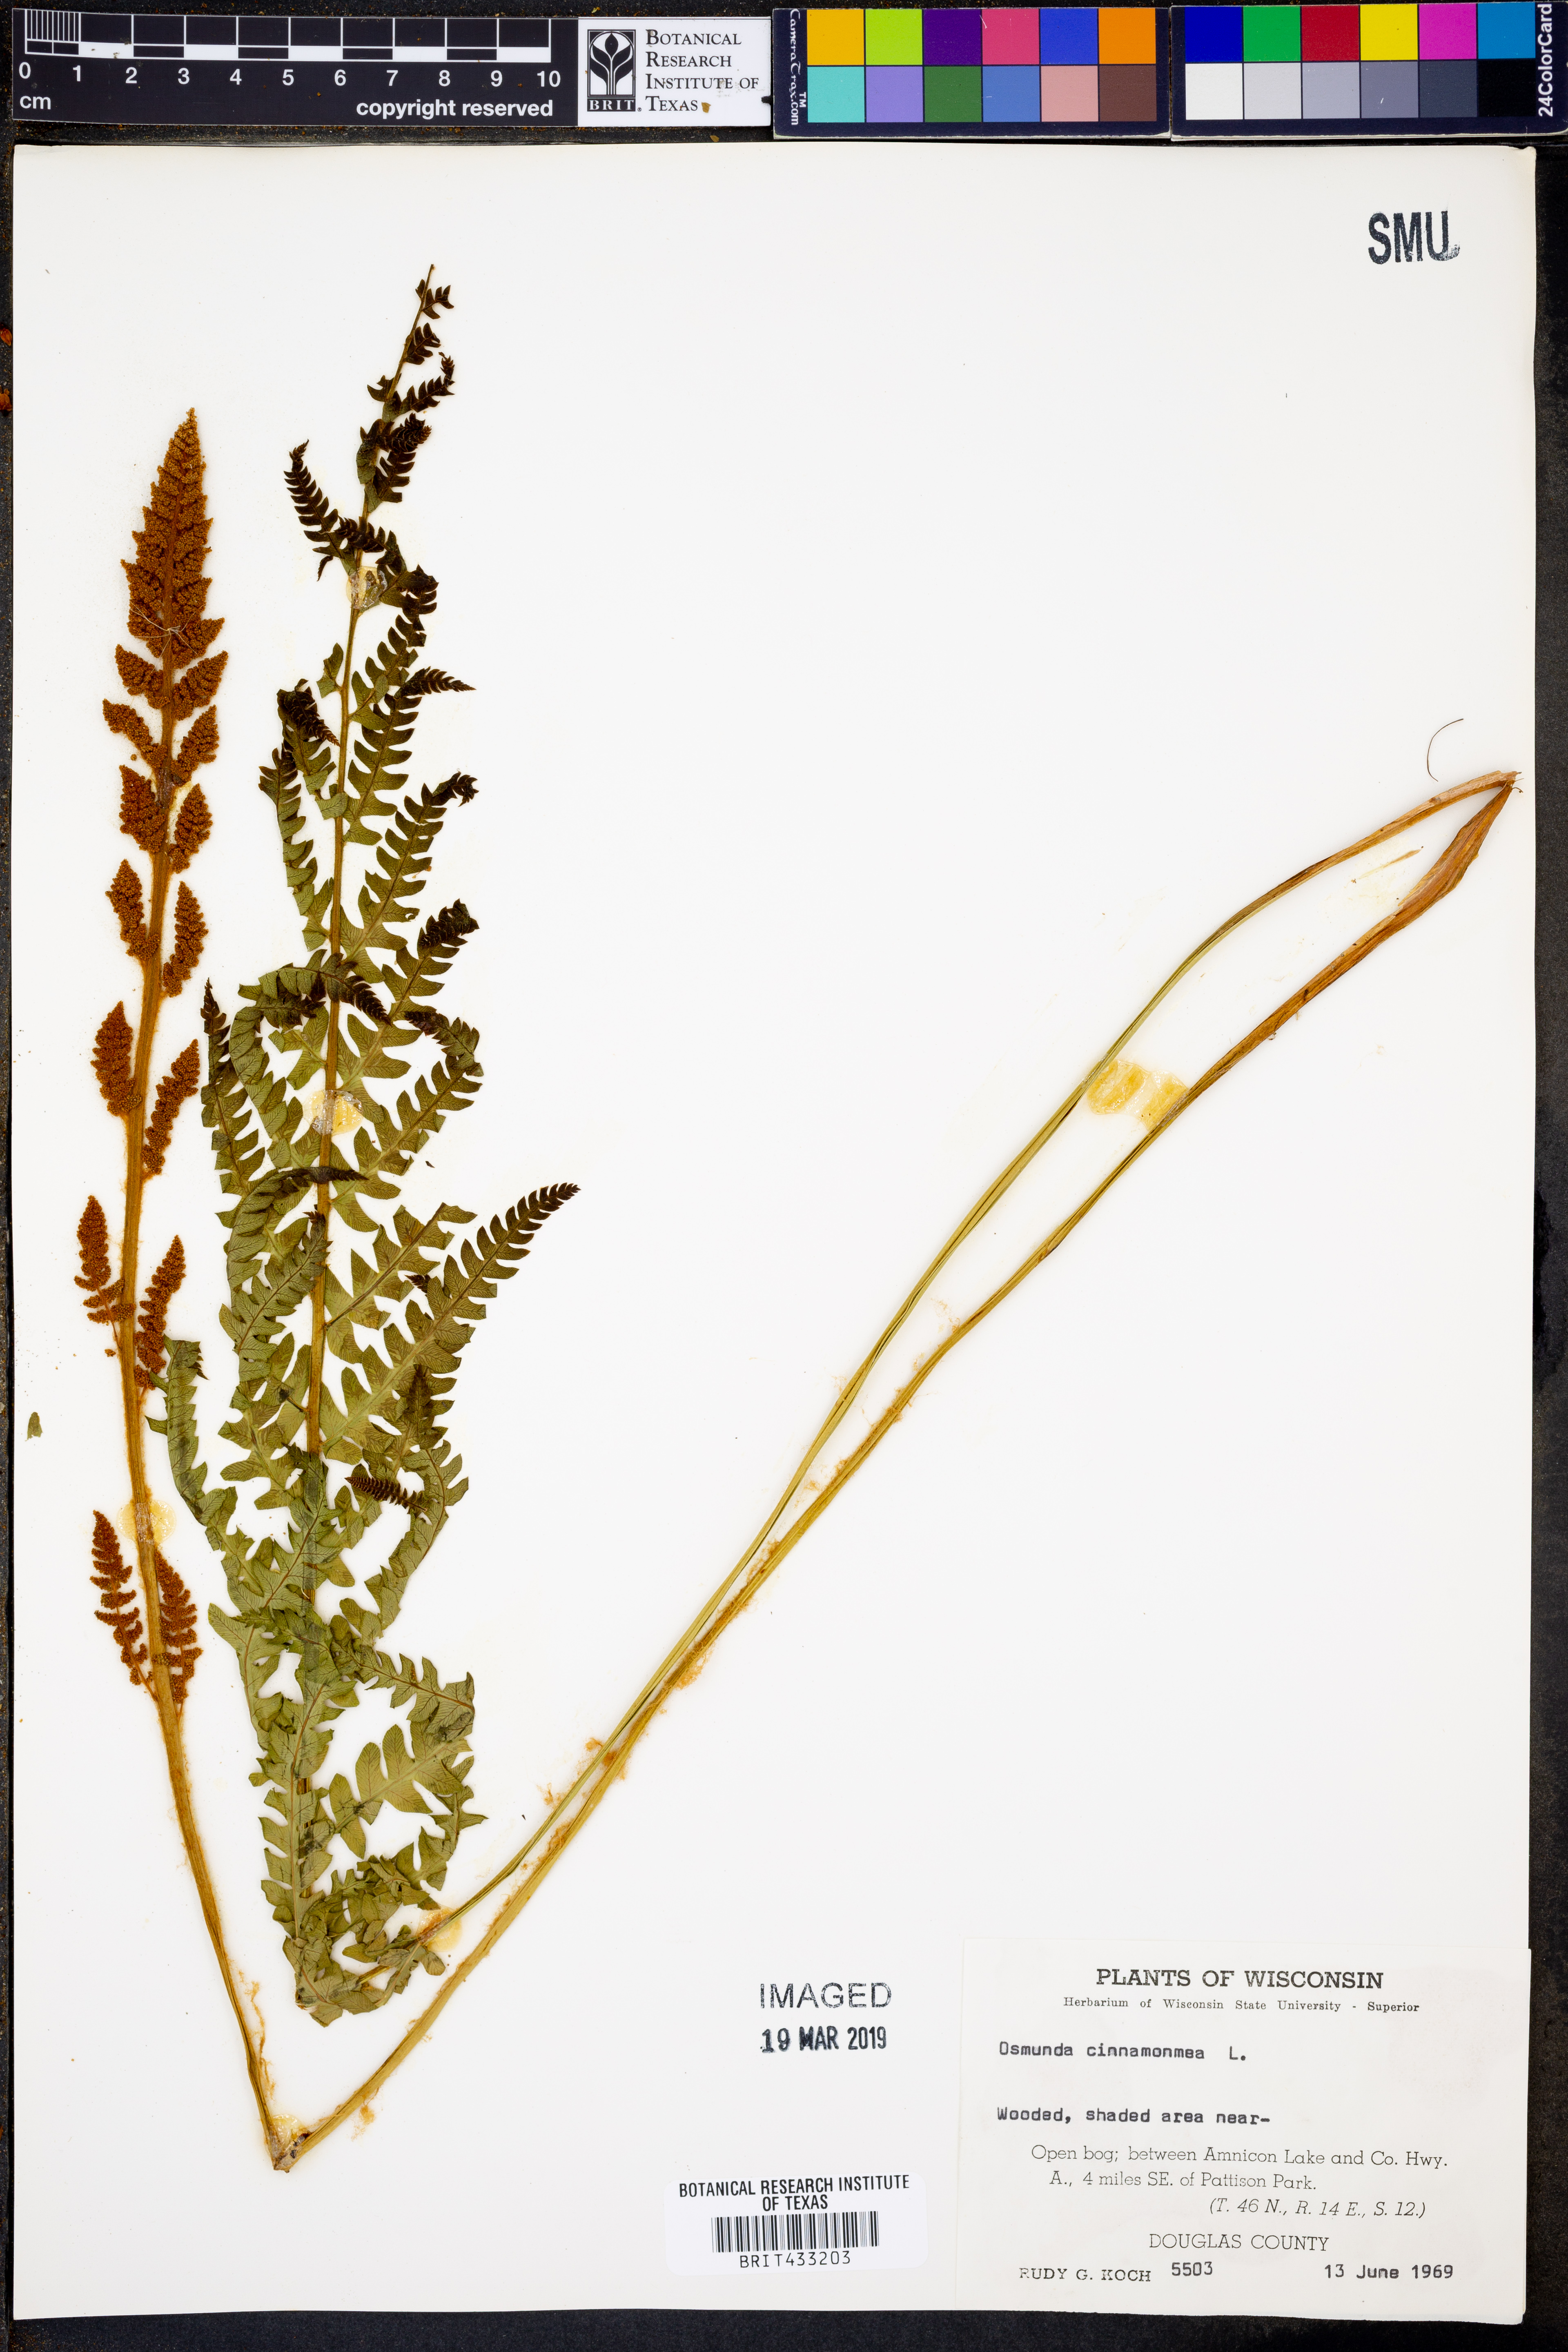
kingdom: Plantae
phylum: Tracheophyta
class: Polypodiopsida
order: Osmundales
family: Osmundaceae
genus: Osmundastrum
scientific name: Osmundastrum cinnamomeum
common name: Cinnamon fern
